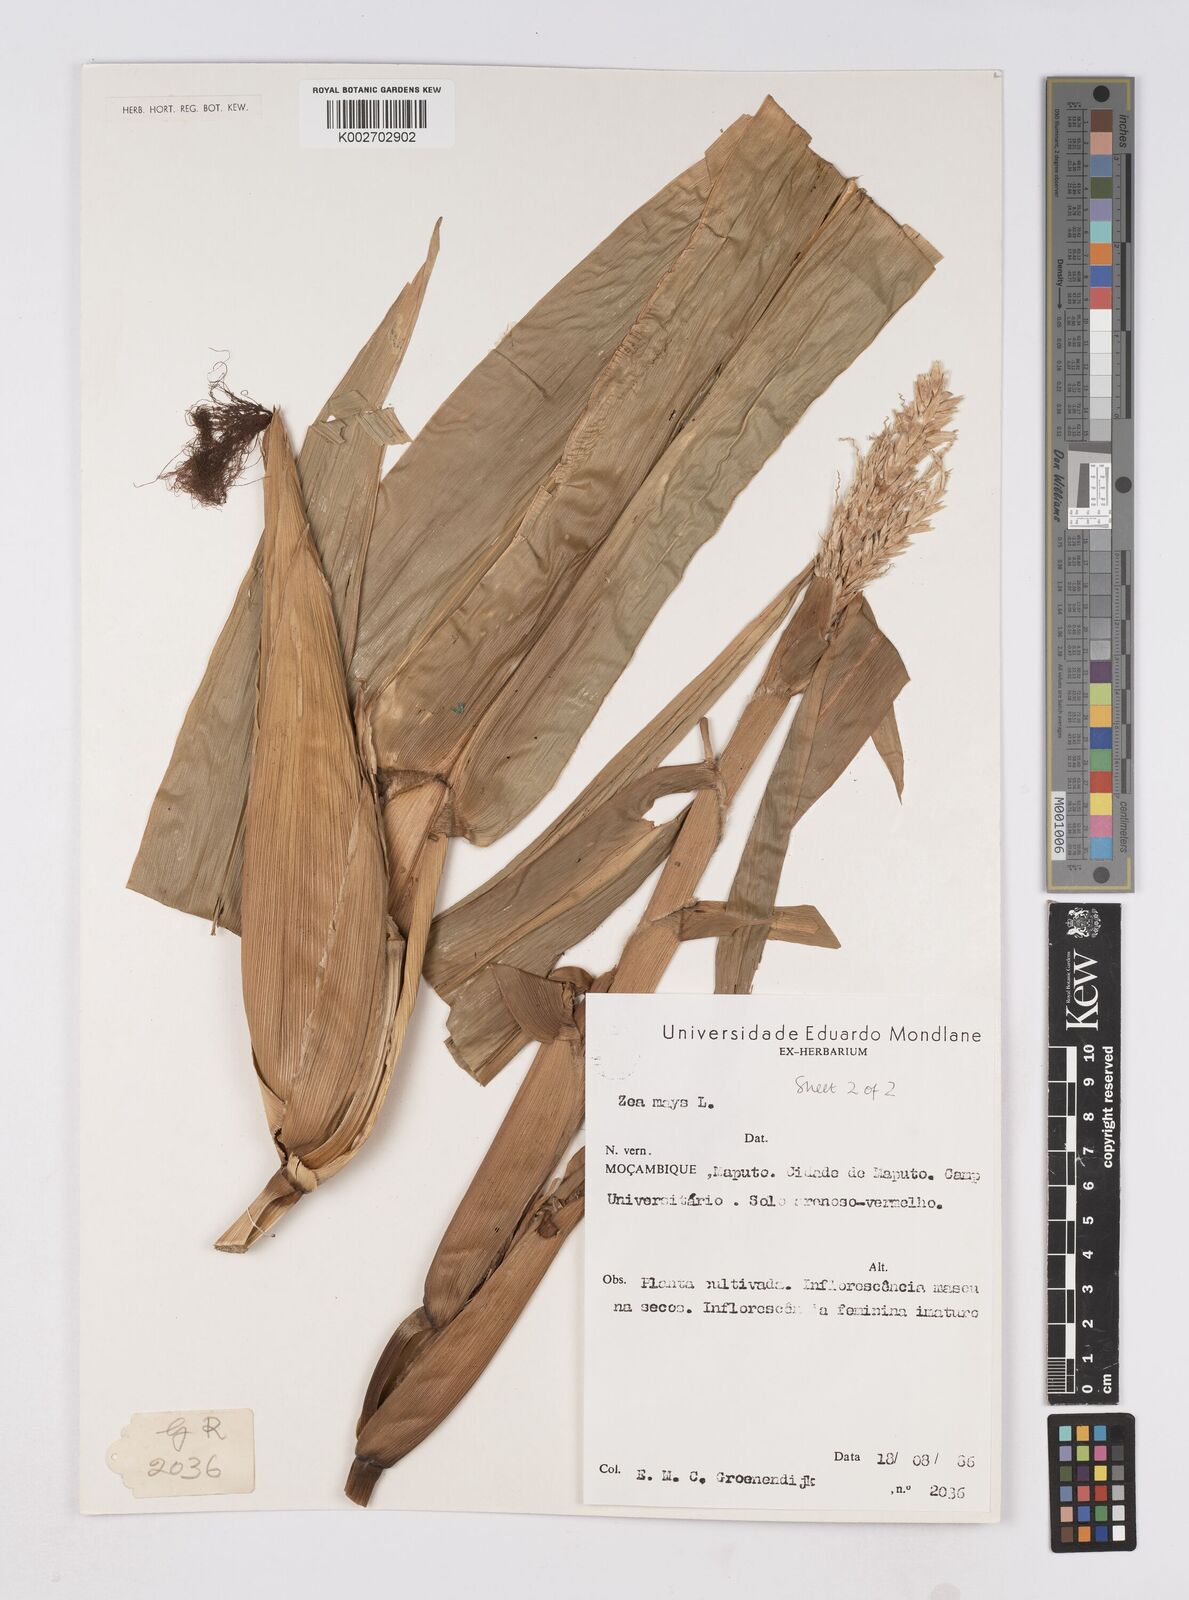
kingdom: Plantae
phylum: Tracheophyta
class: Liliopsida
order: Poales
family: Poaceae
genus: Zea
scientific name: Zea mays
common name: Maize
